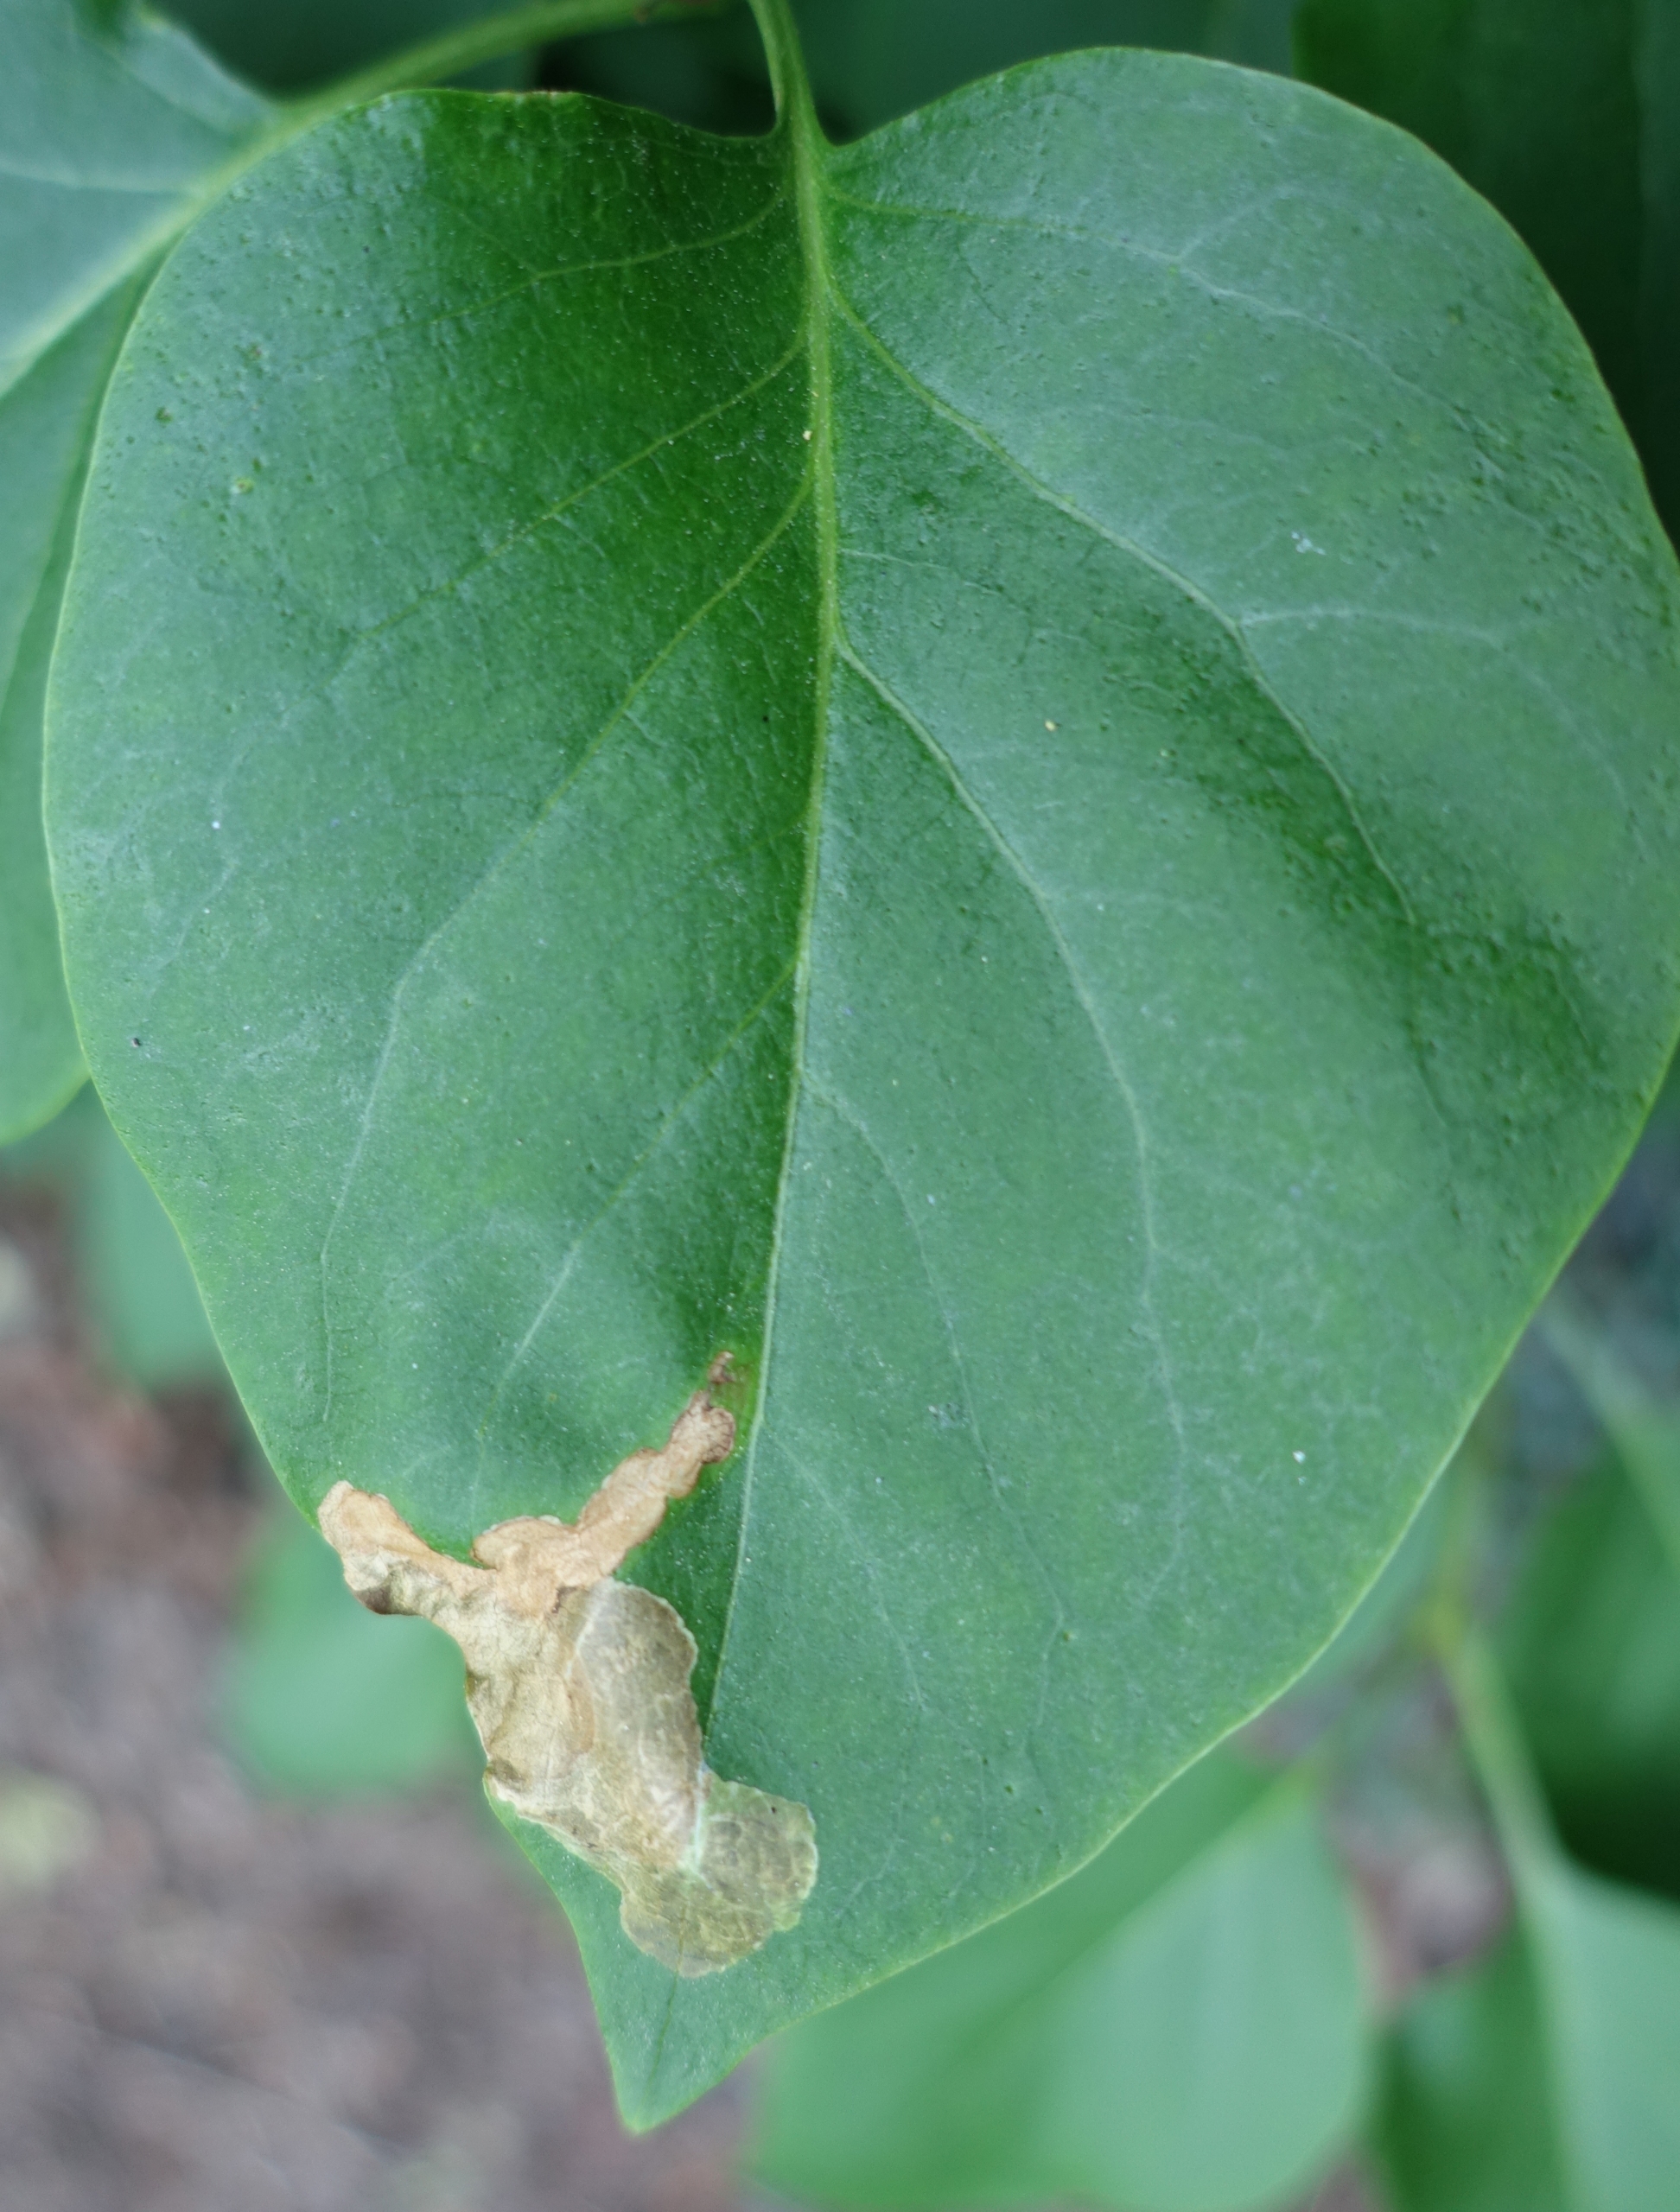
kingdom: Animalia
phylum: Arthropoda
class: Insecta
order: Lepidoptera
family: Gracillariidae
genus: Gracillaria
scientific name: Gracillaria syringella
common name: Syrenmøl
